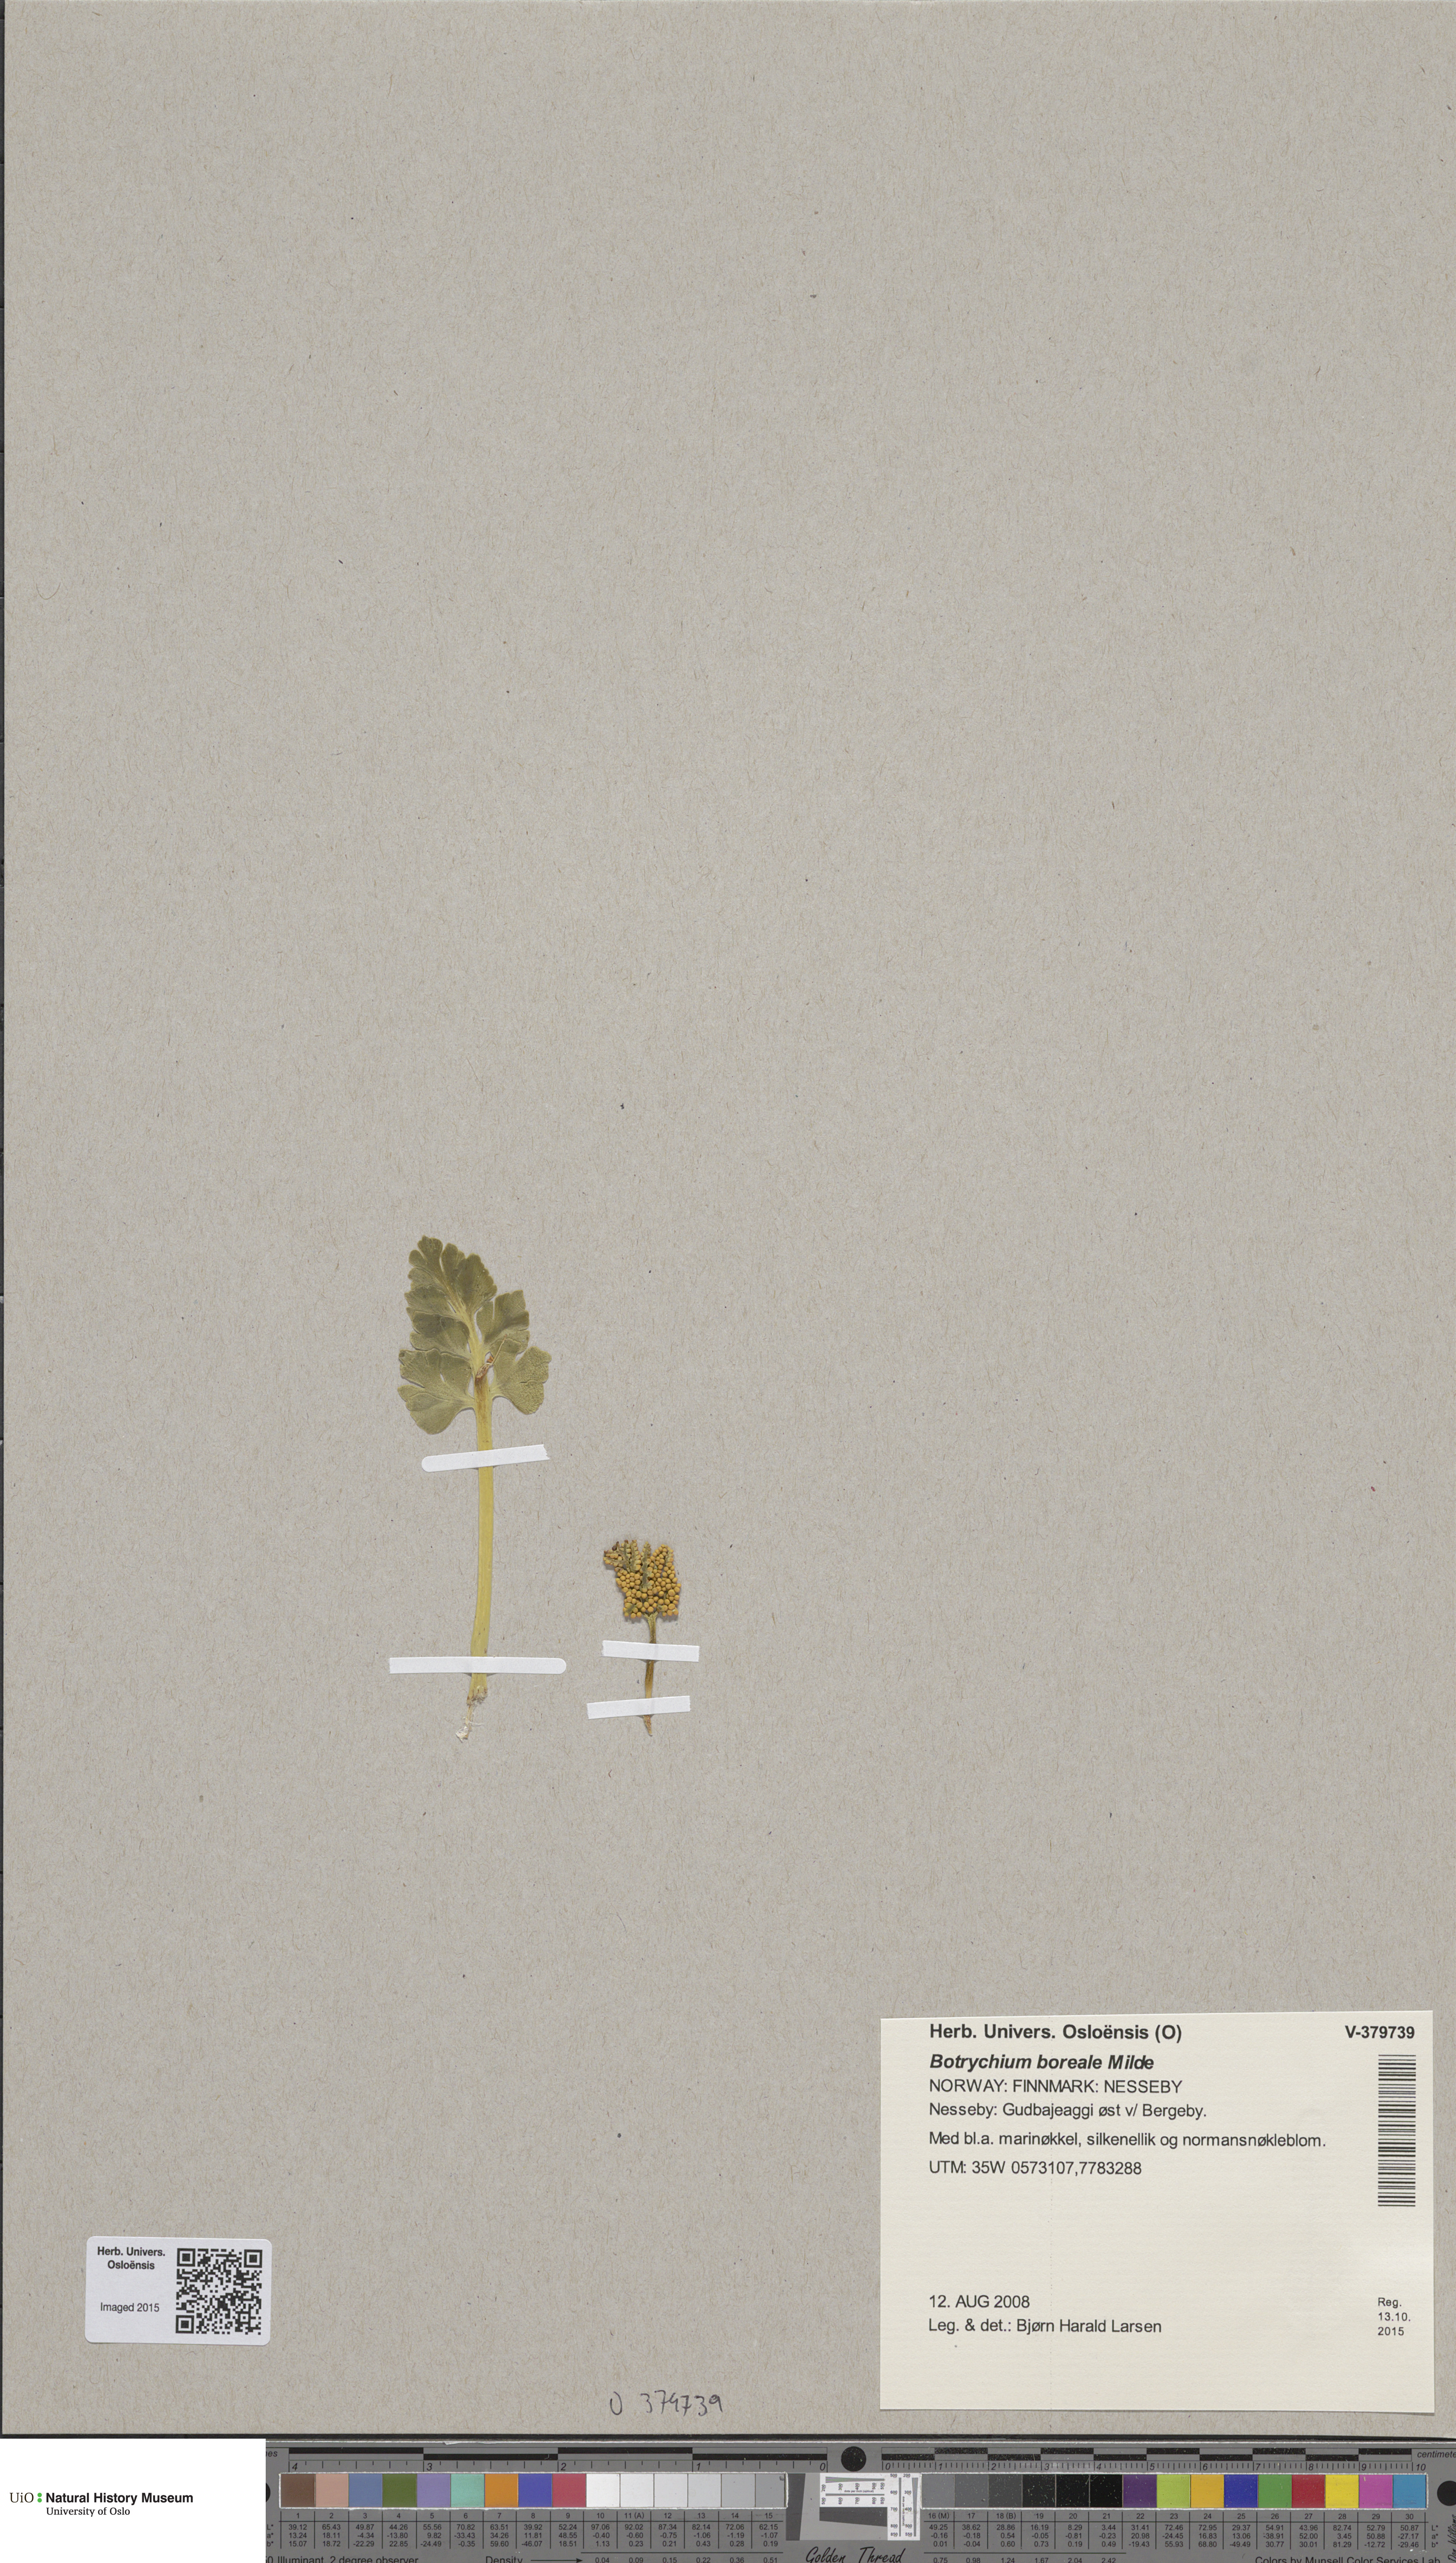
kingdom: Plantae
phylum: Tracheophyta
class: Polypodiopsida
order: Ophioglossales
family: Ophioglossaceae
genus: Botrychium
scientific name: Botrychium boreale
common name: Boreal moonwort
